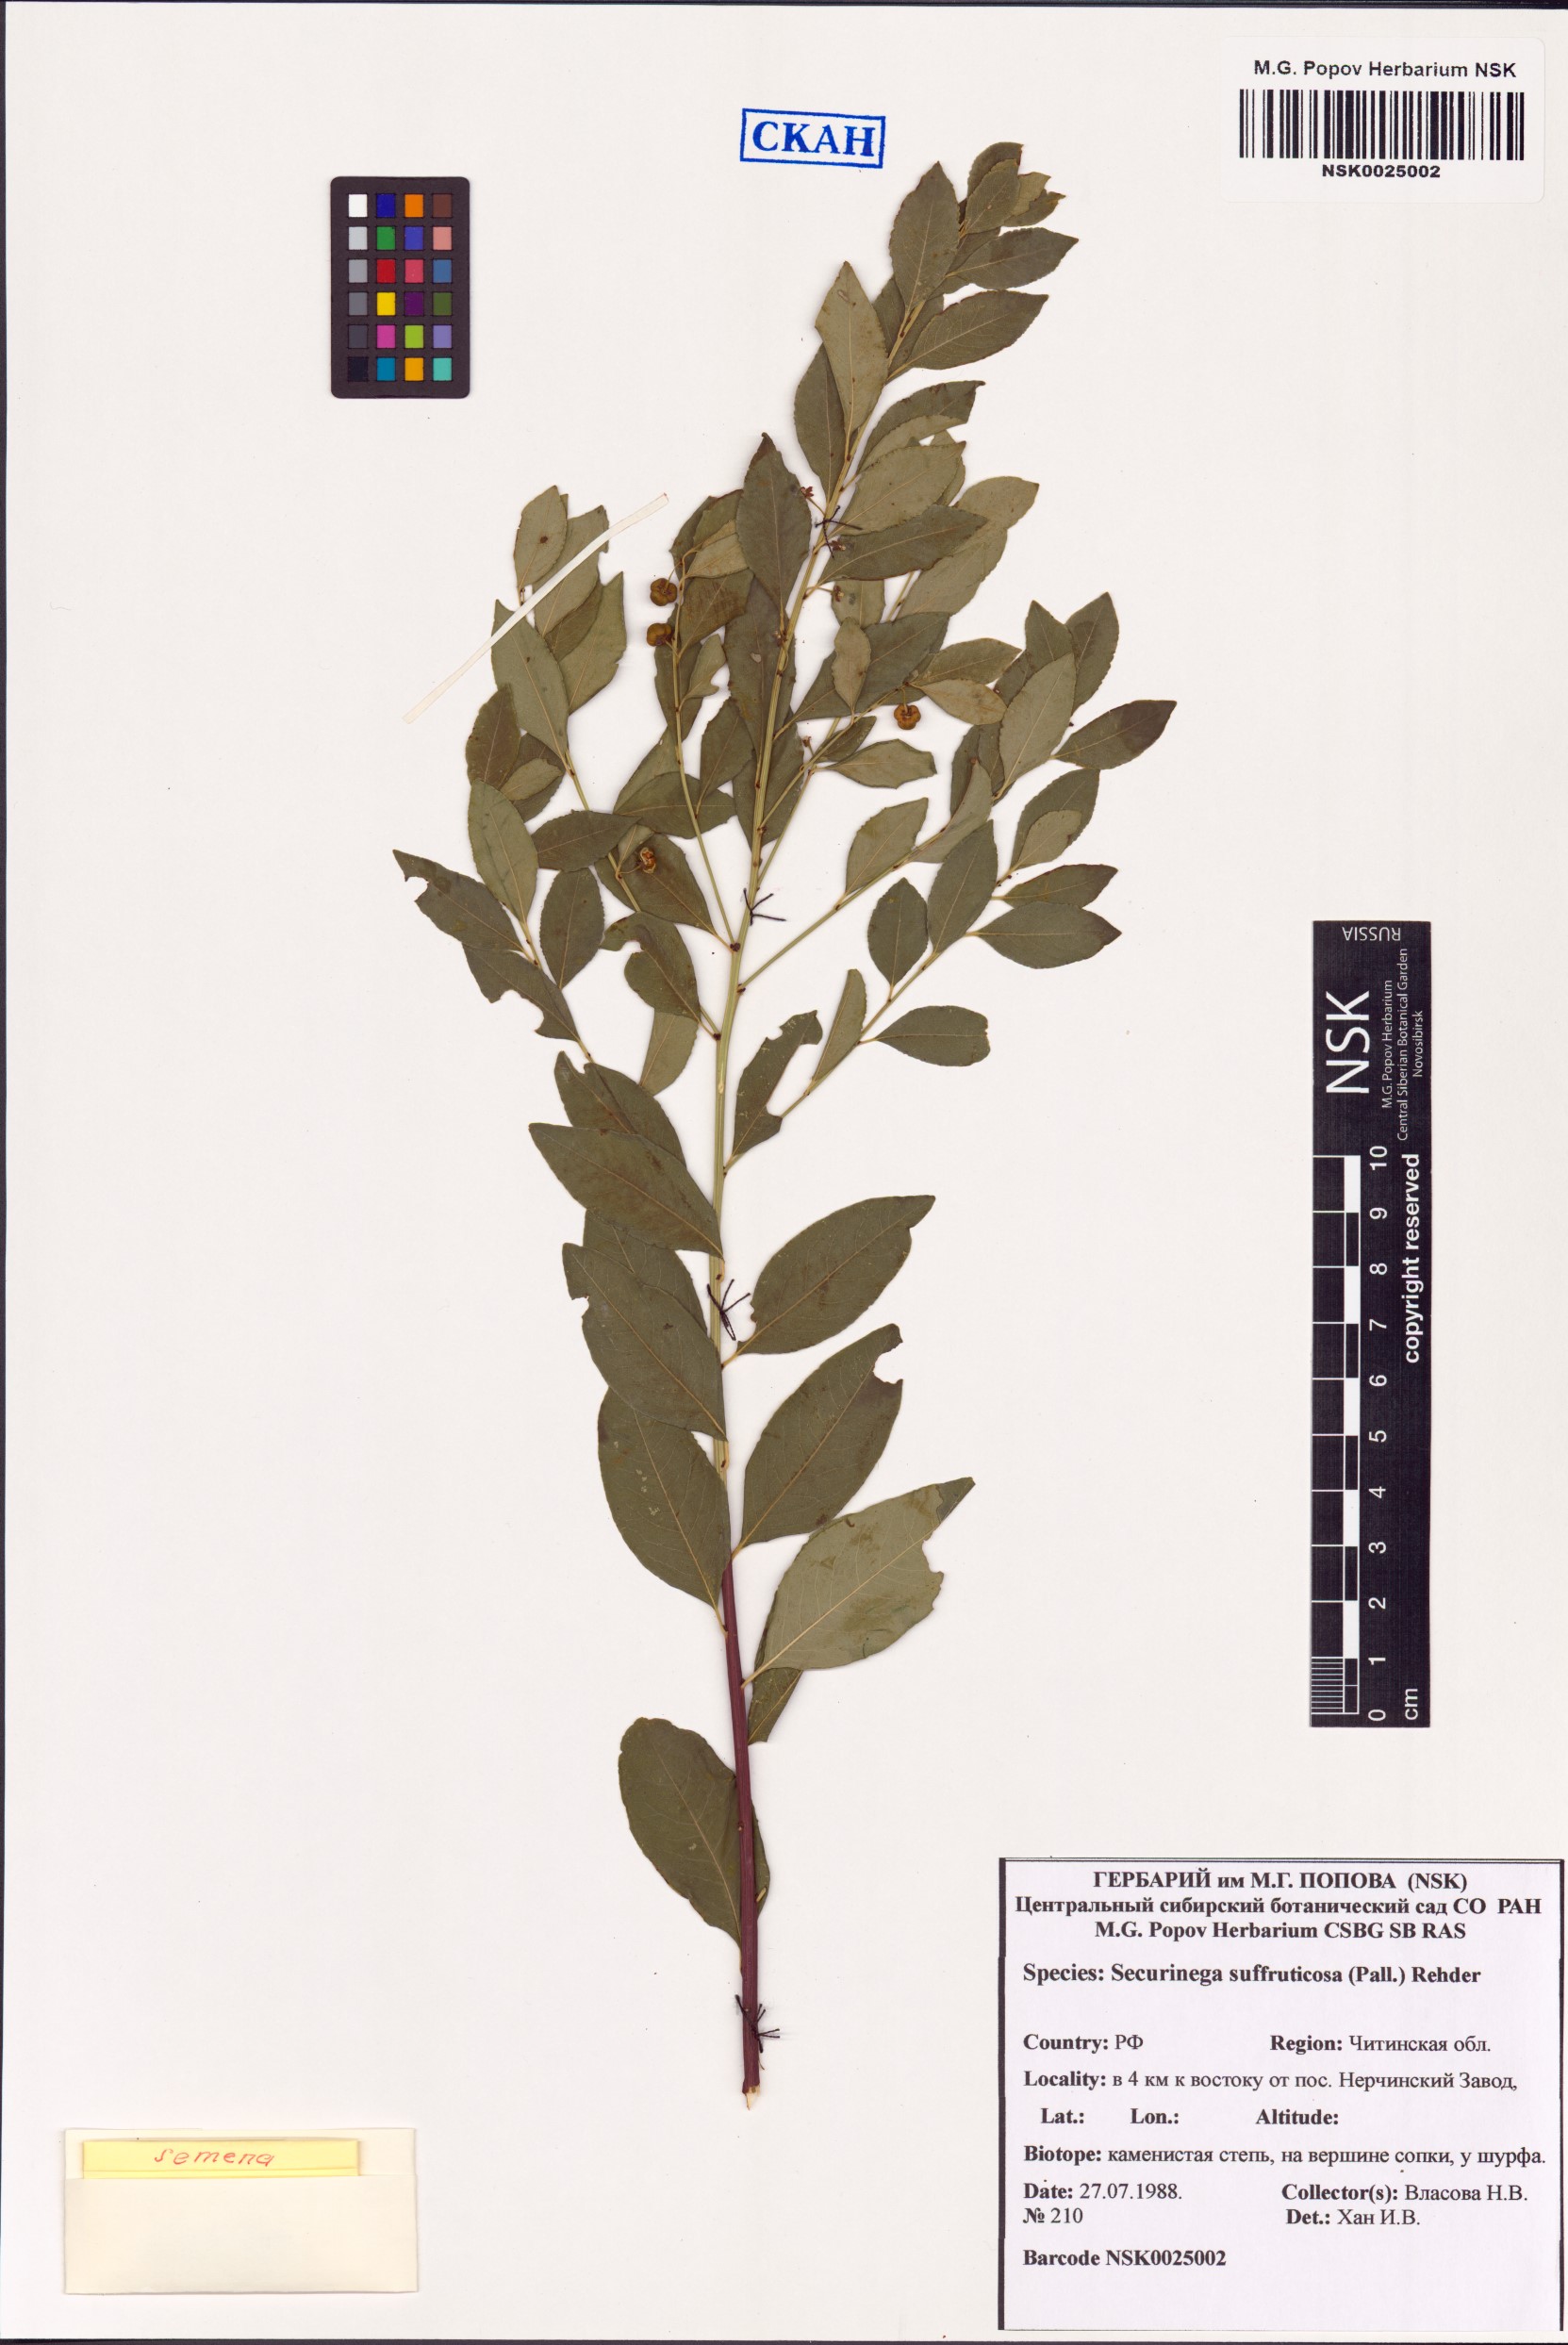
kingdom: Plantae
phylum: Tracheophyta
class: Magnoliopsida
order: Malpighiales
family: Phyllanthaceae
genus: Flueggea
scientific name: Flueggea suffruticosa
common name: Arching bushweed
